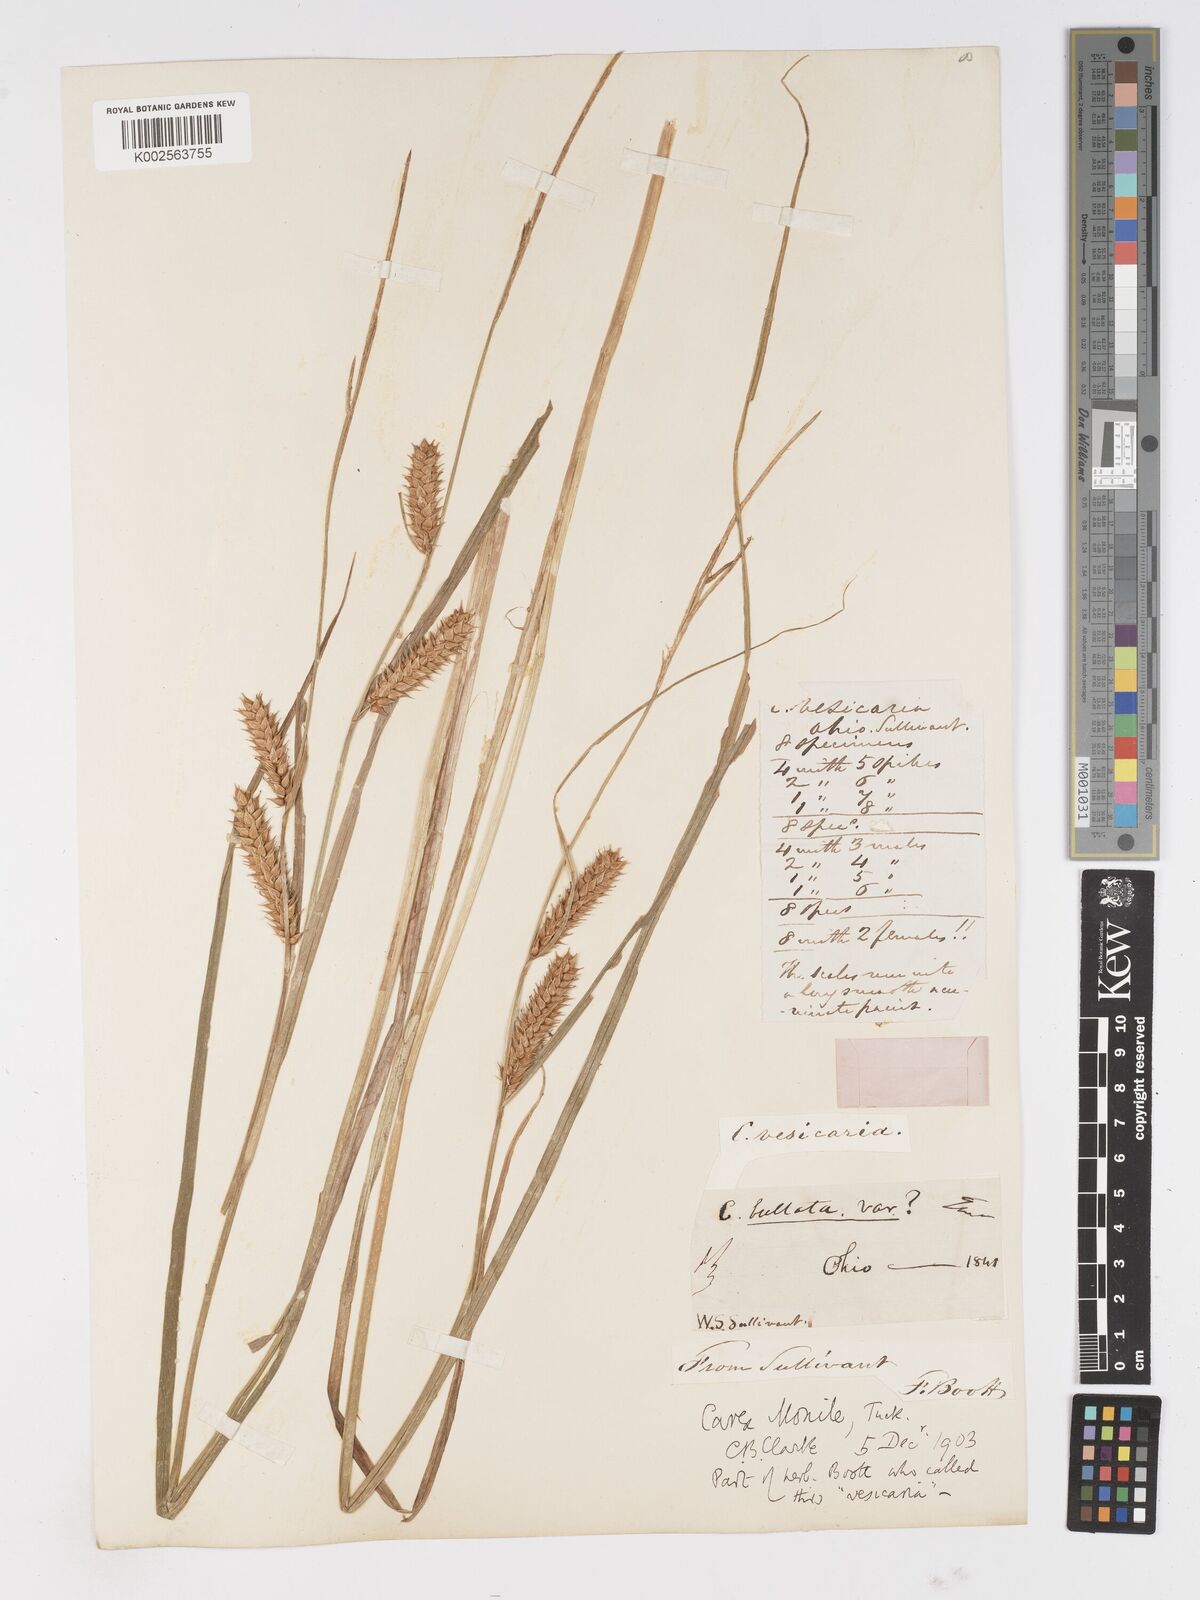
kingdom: Plantae
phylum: Tracheophyta
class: Liliopsida
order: Poales
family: Cyperaceae
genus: Carex
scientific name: Carex vesicaria
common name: Bladder-sedge
